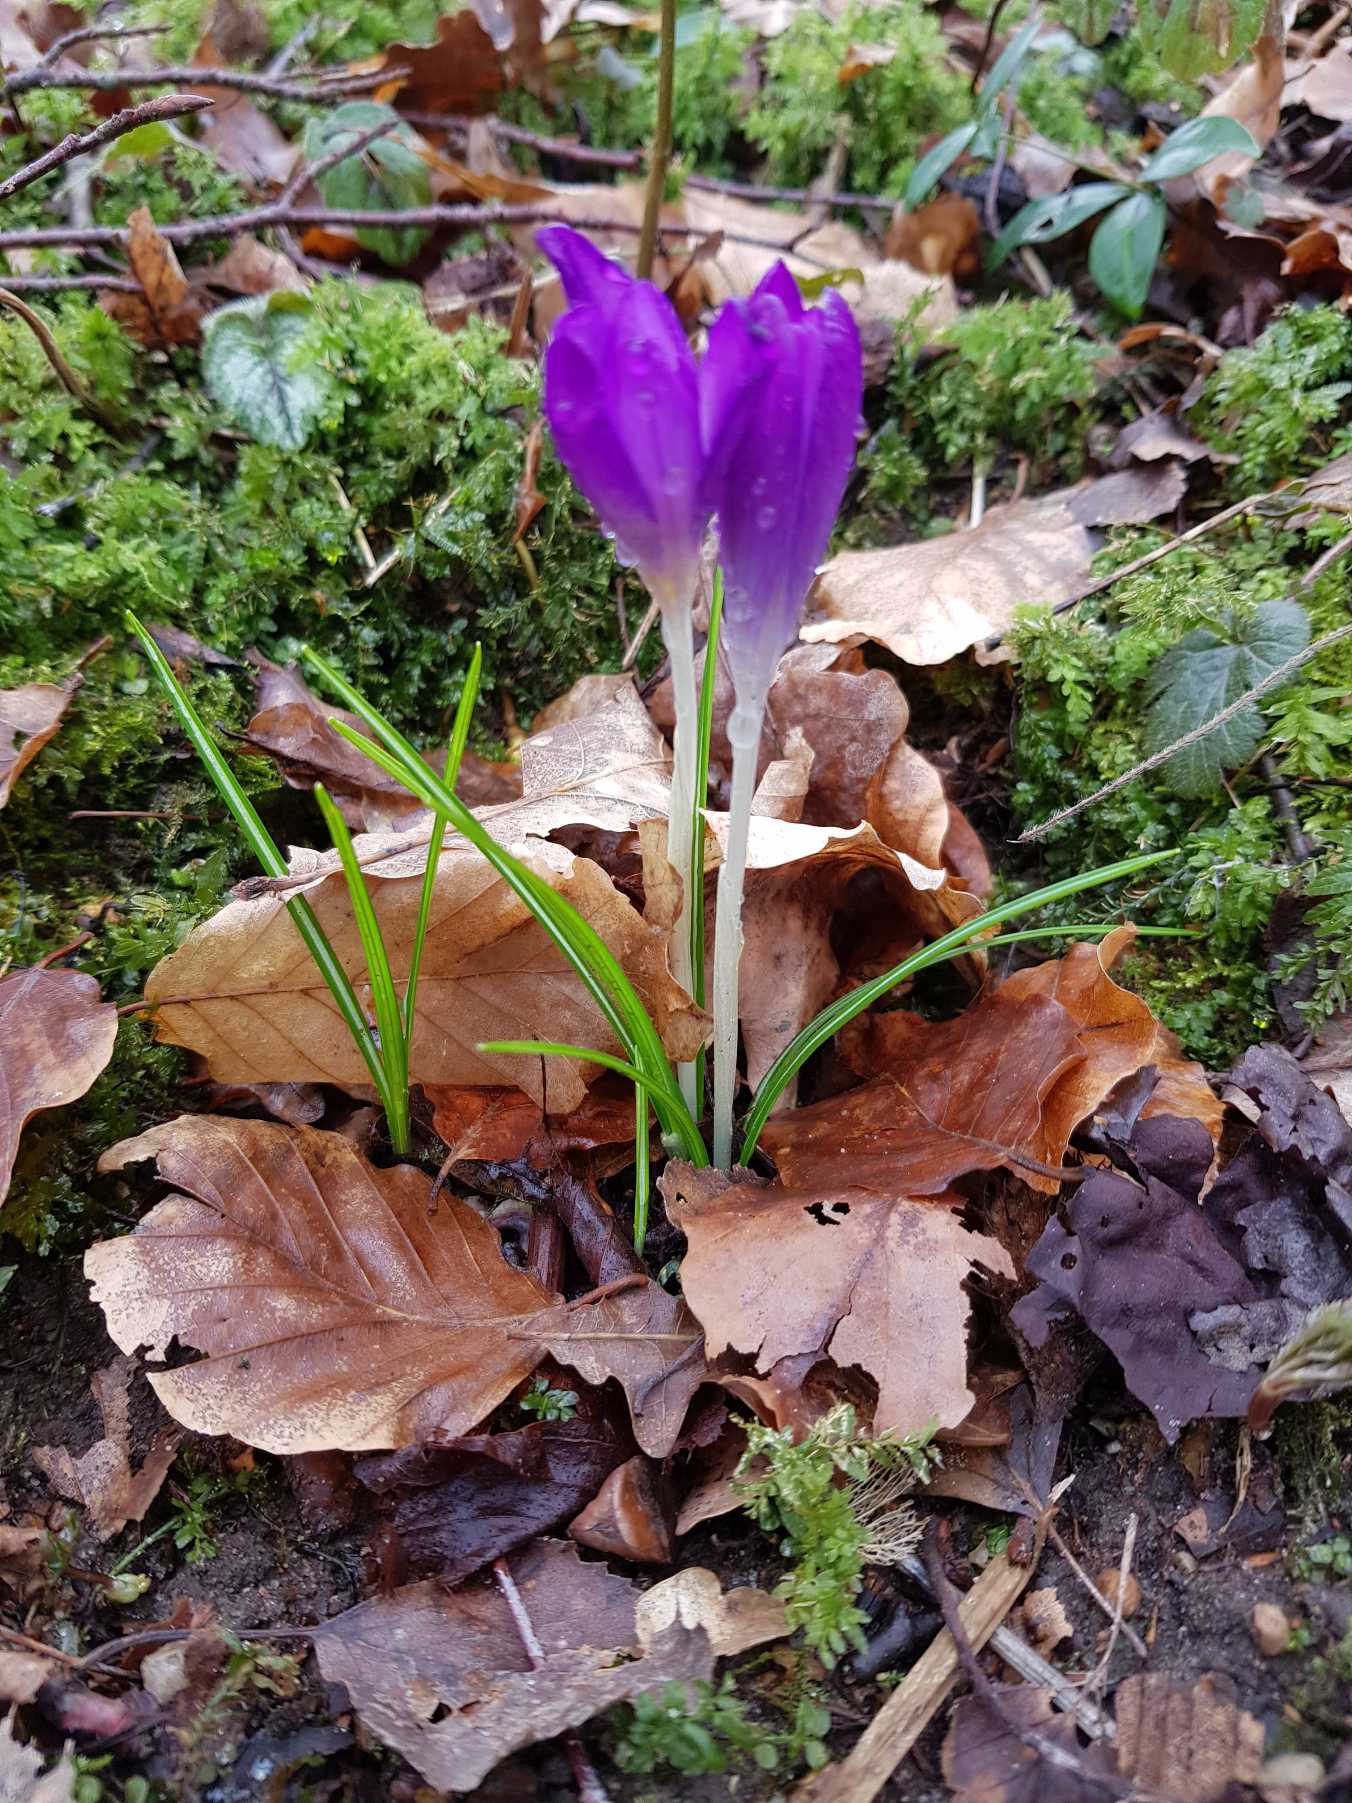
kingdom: Plantae
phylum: Tracheophyta
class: Liliopsida
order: Asparagales
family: Iridaceae
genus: Crocus
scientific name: Crocus tommasinianus
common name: Sne-krokus
